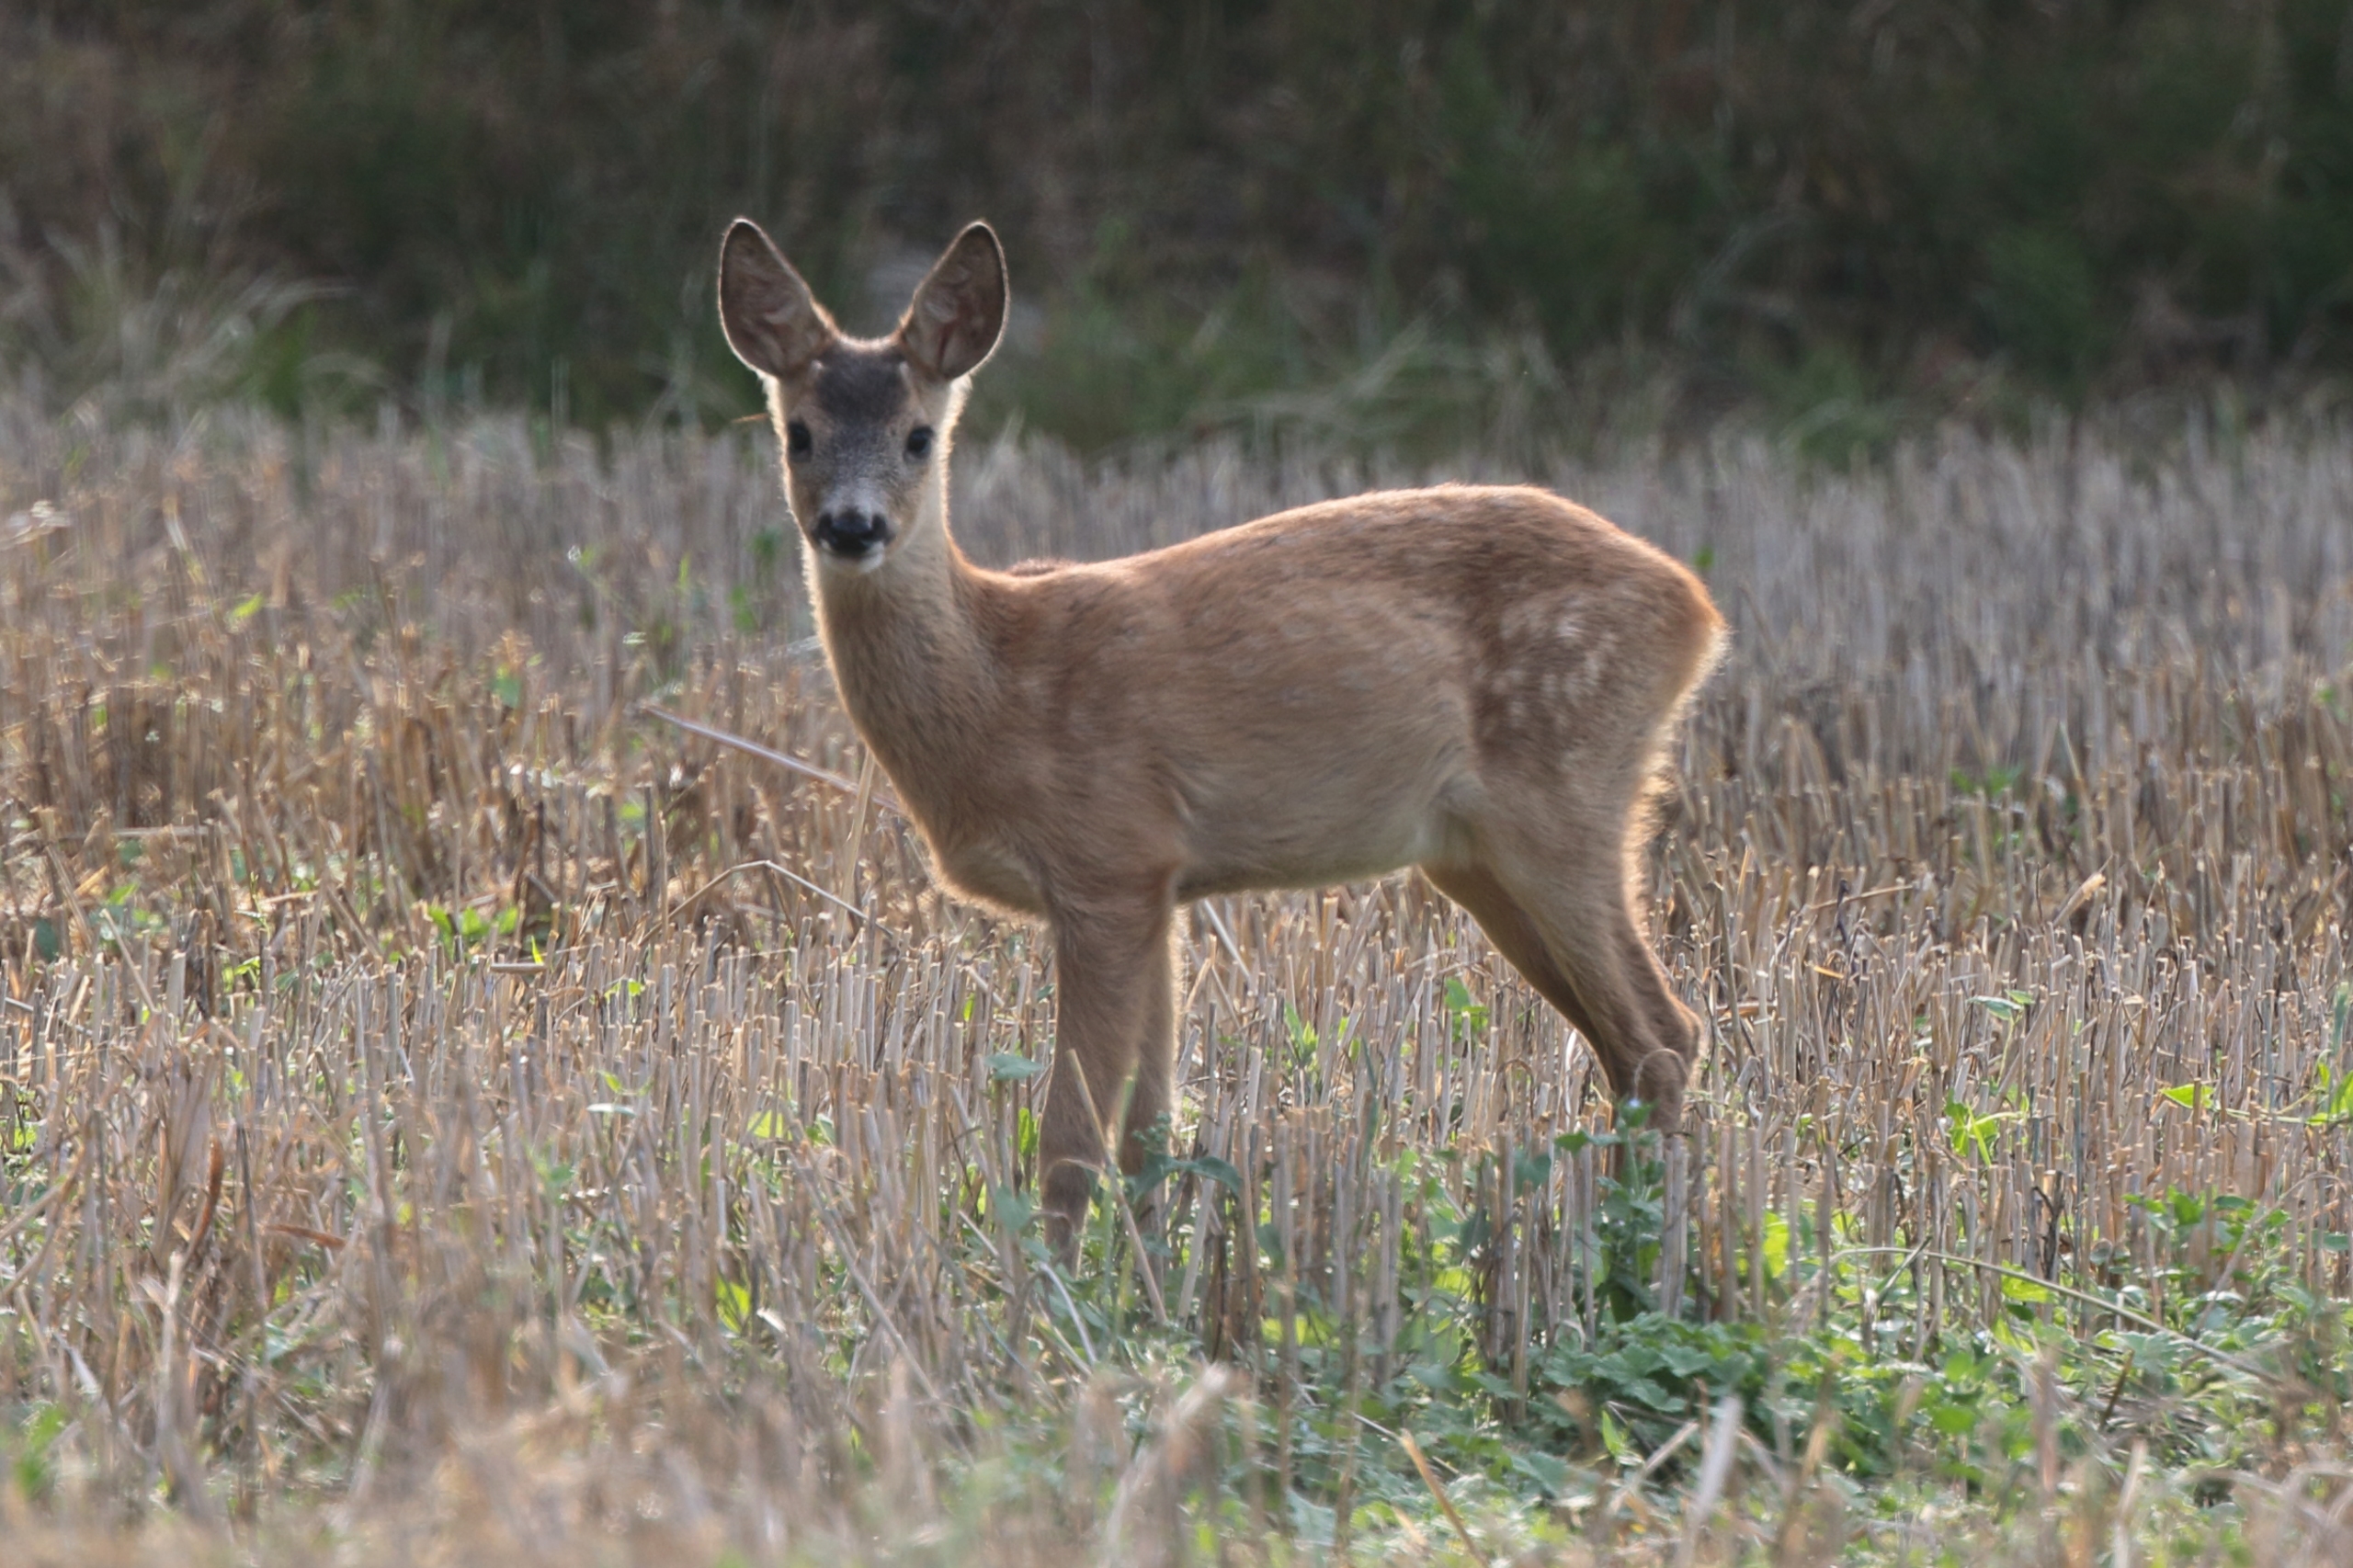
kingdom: Animalia
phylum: Chordata
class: Mammalia
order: Artiodactyla
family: Cervidae
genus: Capreolus
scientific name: Capreolus capreolus
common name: Rådyr
